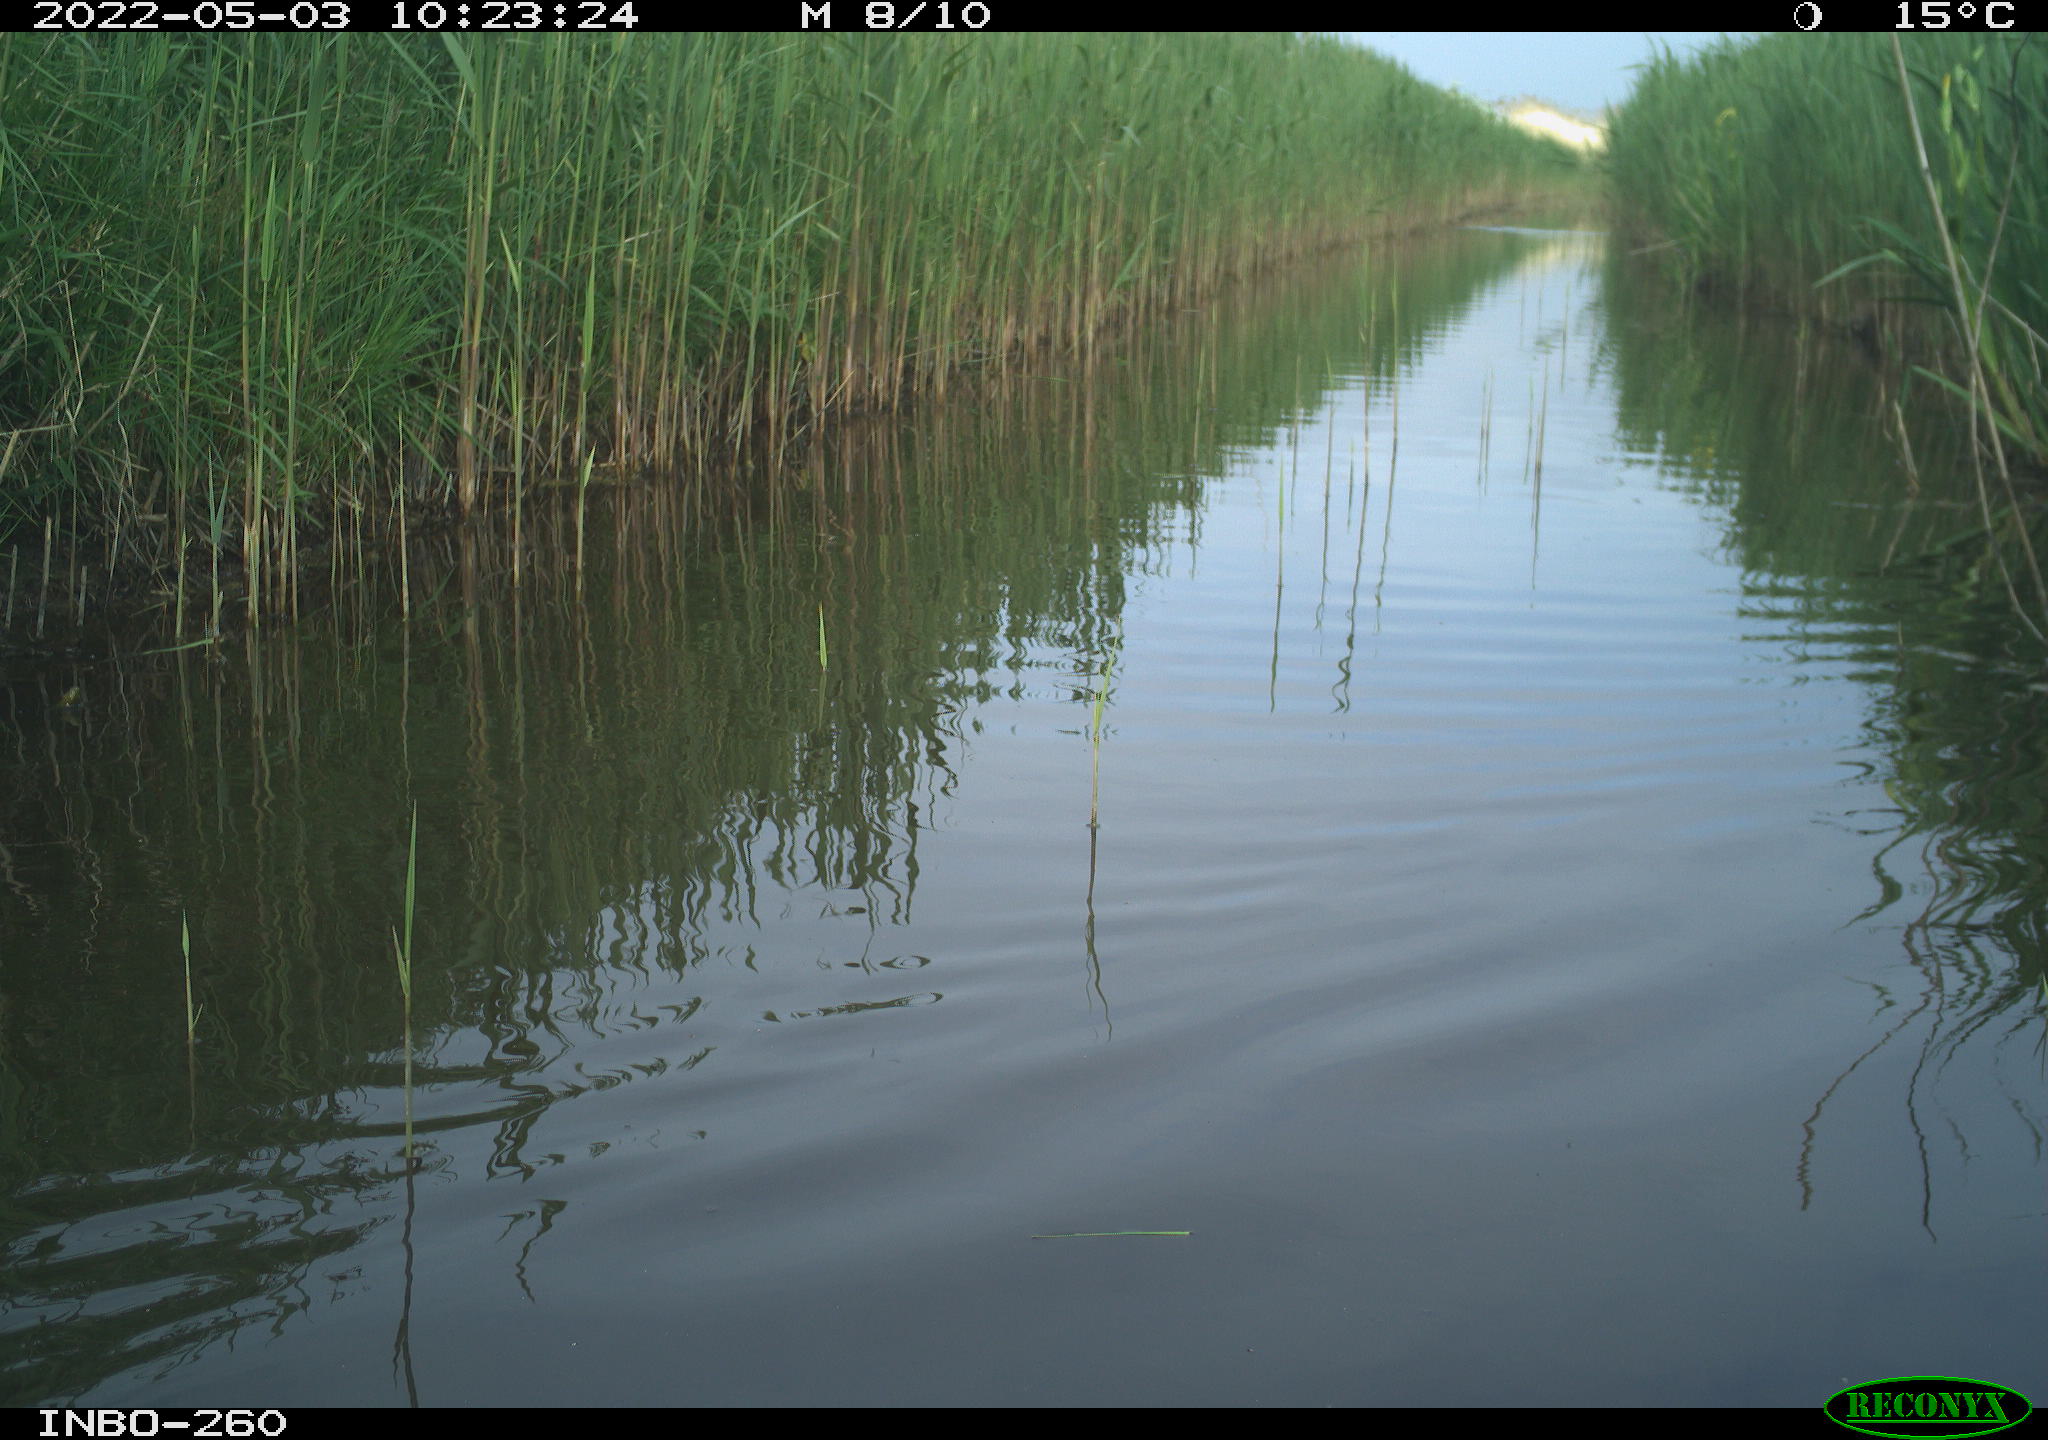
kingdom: Animalia
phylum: Chordata
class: Aves
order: Gruiformes
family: Rallidae
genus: Fulica
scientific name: Fulica atra
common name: Eurasian coot
